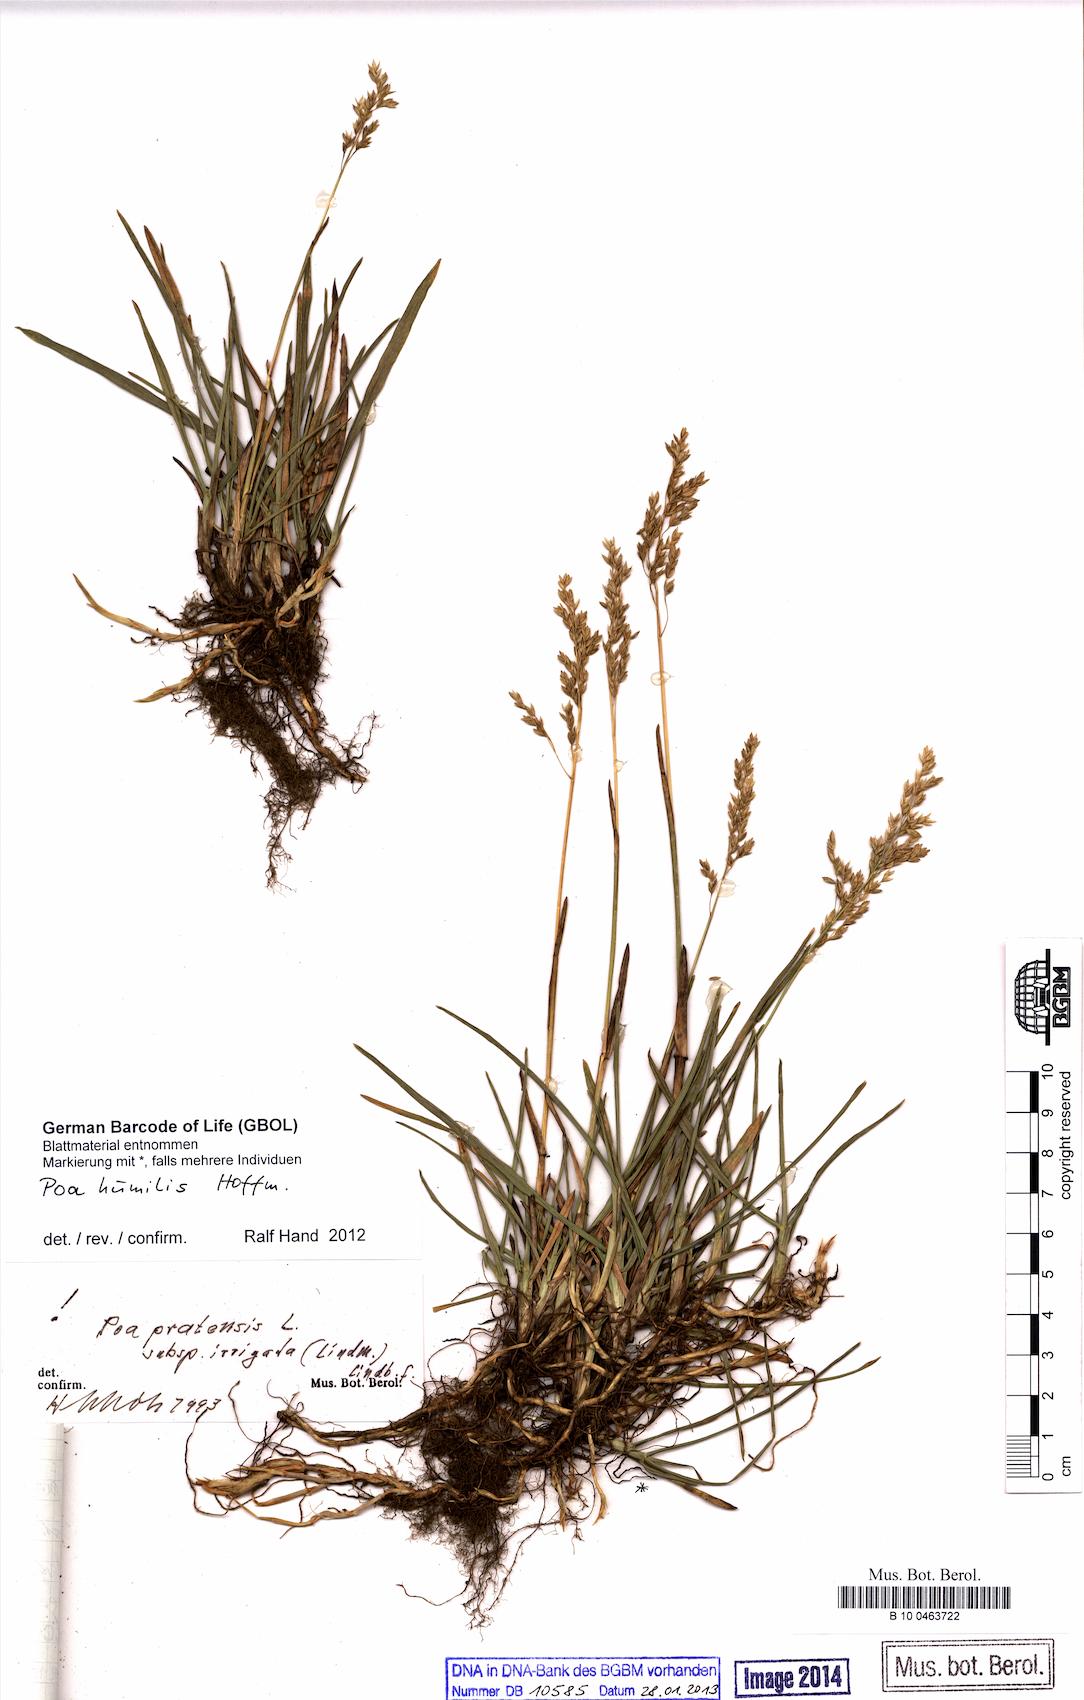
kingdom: Plantae
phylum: Tracheophyta
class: Liliopsida
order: Poales
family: Poaceae
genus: Poa
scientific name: Poa humilis
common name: Spreading meadow-grass
